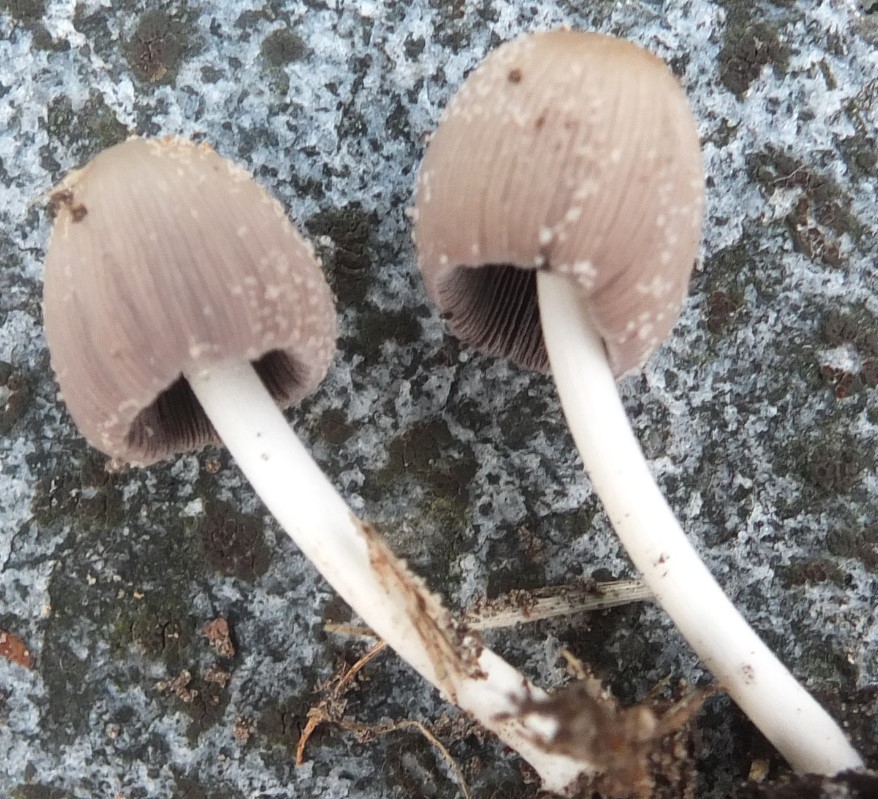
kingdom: Fungi
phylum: Basidiomycota
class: Agaricomycetes
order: Agaricales
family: Psathyrellaceae
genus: Coprinellus
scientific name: Coprinellus domesticus
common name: hus-blækhat
